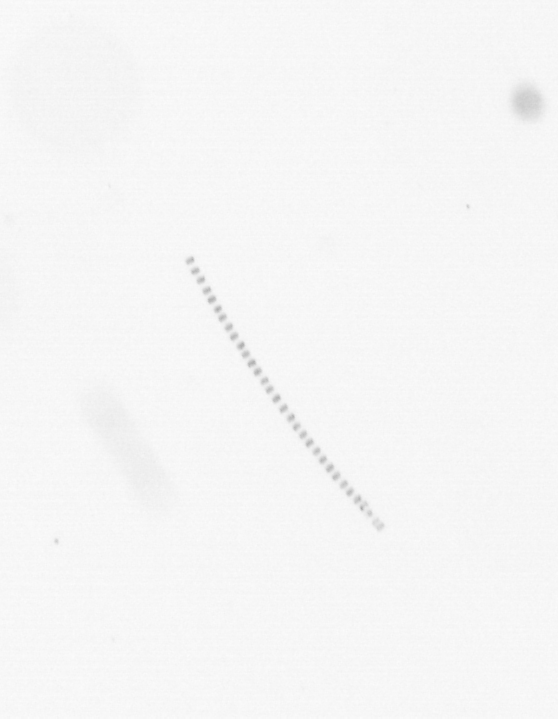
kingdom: Chromista
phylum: Ochrophyta
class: Bacillariophyceae
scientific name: Bacillariophyceae
